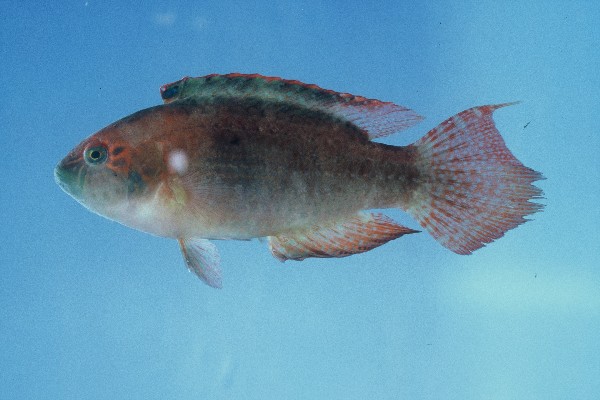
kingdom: Animalia
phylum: Chordata
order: Perciformes
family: Labridae
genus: Oxycheilinus
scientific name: Oxycheilinus bimaculatus
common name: Comettailed wrasse
